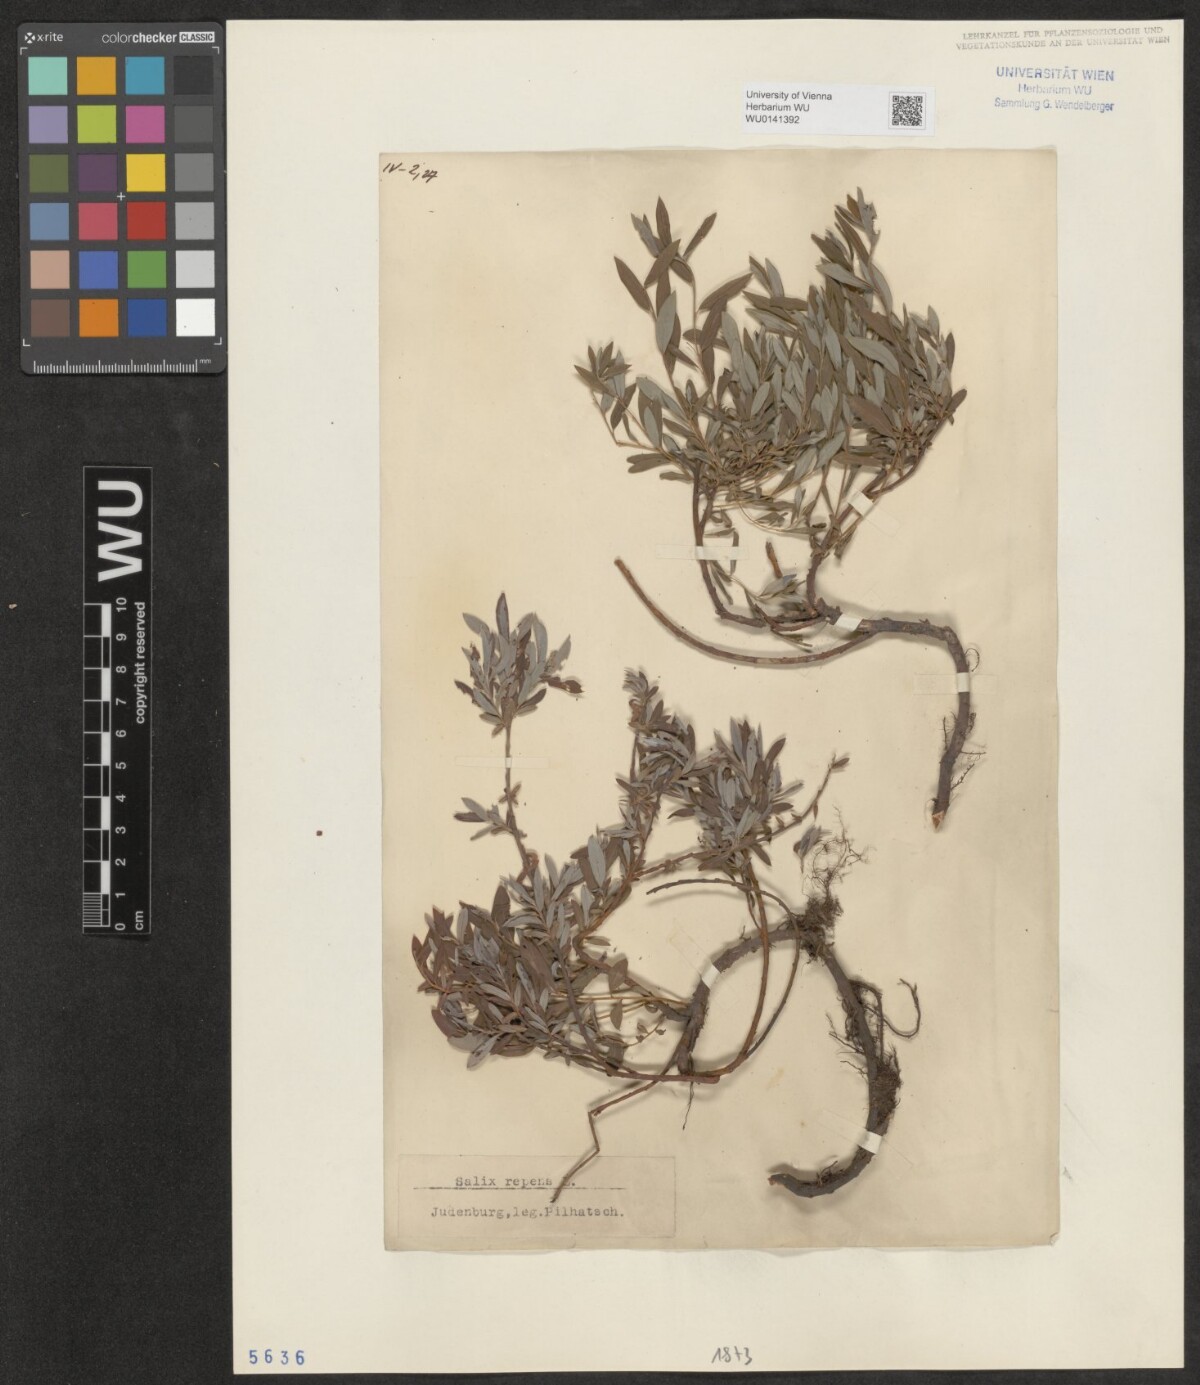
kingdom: Plantae
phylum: Tracheophyta
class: Magnoliopsida
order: Malpighiales
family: Salicaceae
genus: Salix
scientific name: Salix repens
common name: Creeping willow
